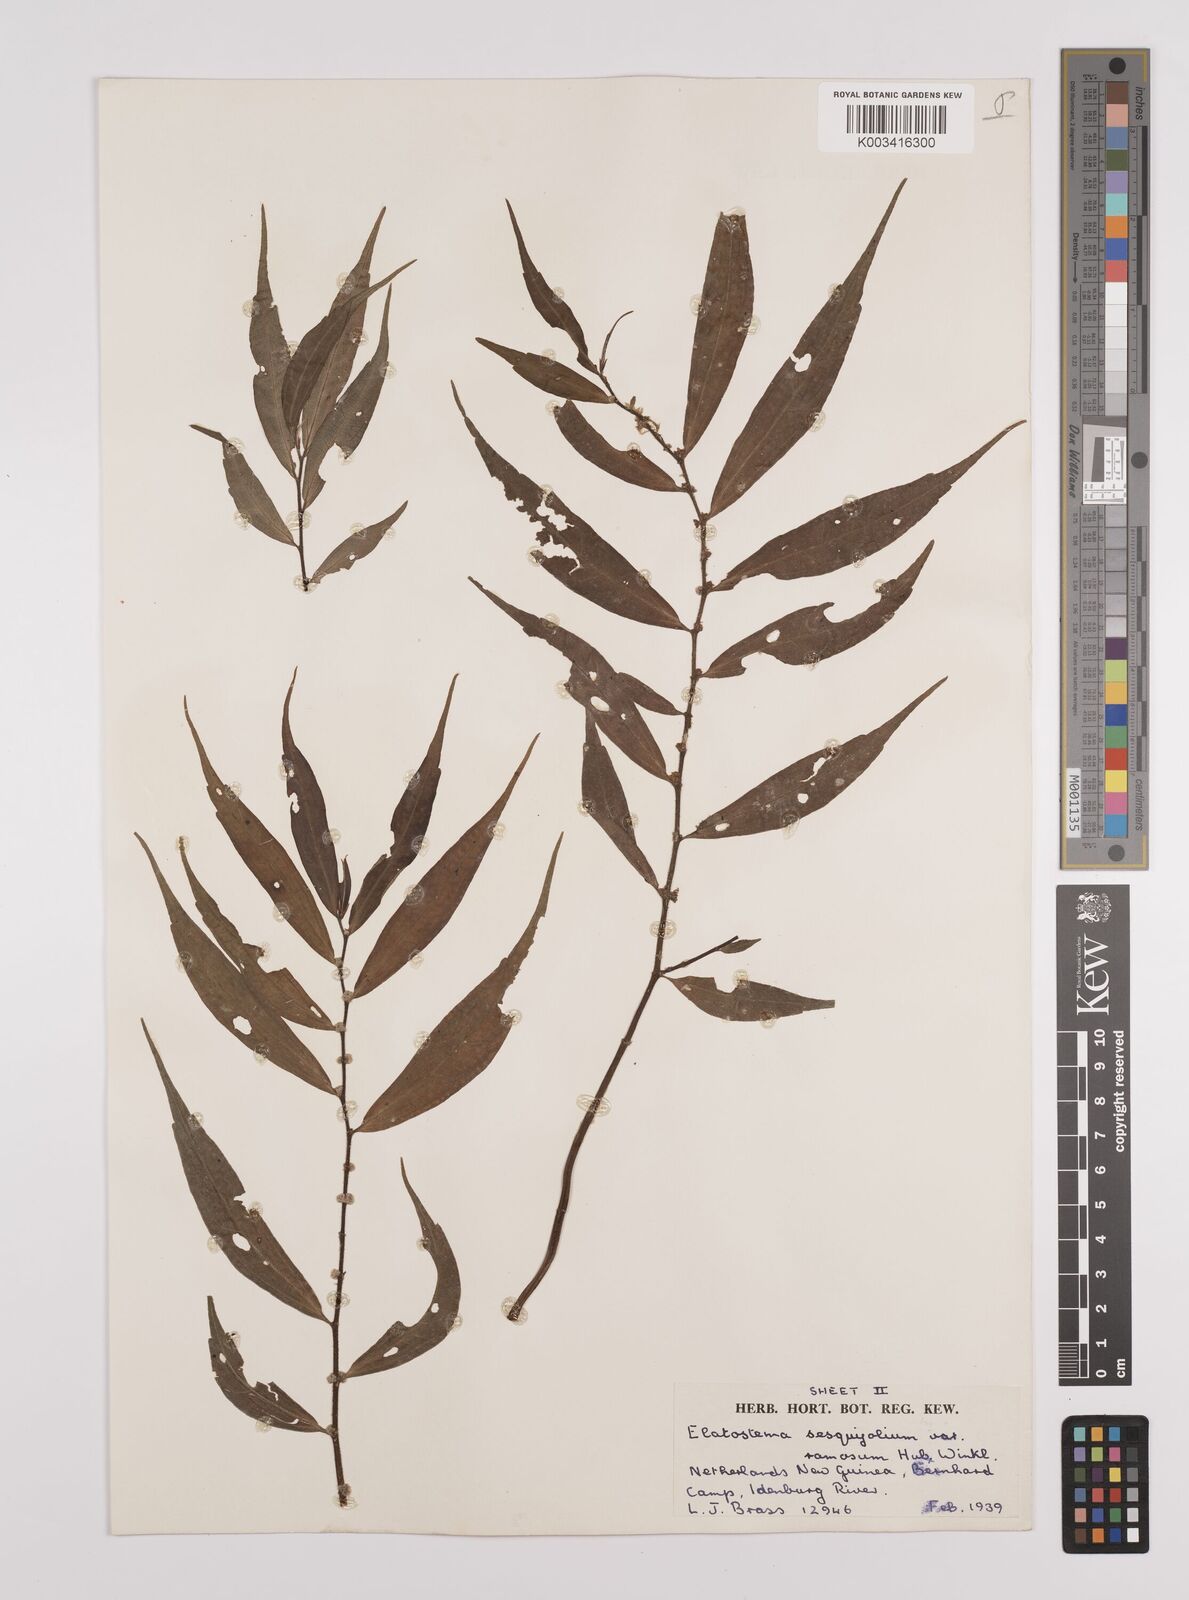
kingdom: Plantae
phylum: Tracheophyta
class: Magnoliopsida
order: Rosales
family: Urticaceae
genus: Elatostema
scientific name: Elatostema integrifolium
